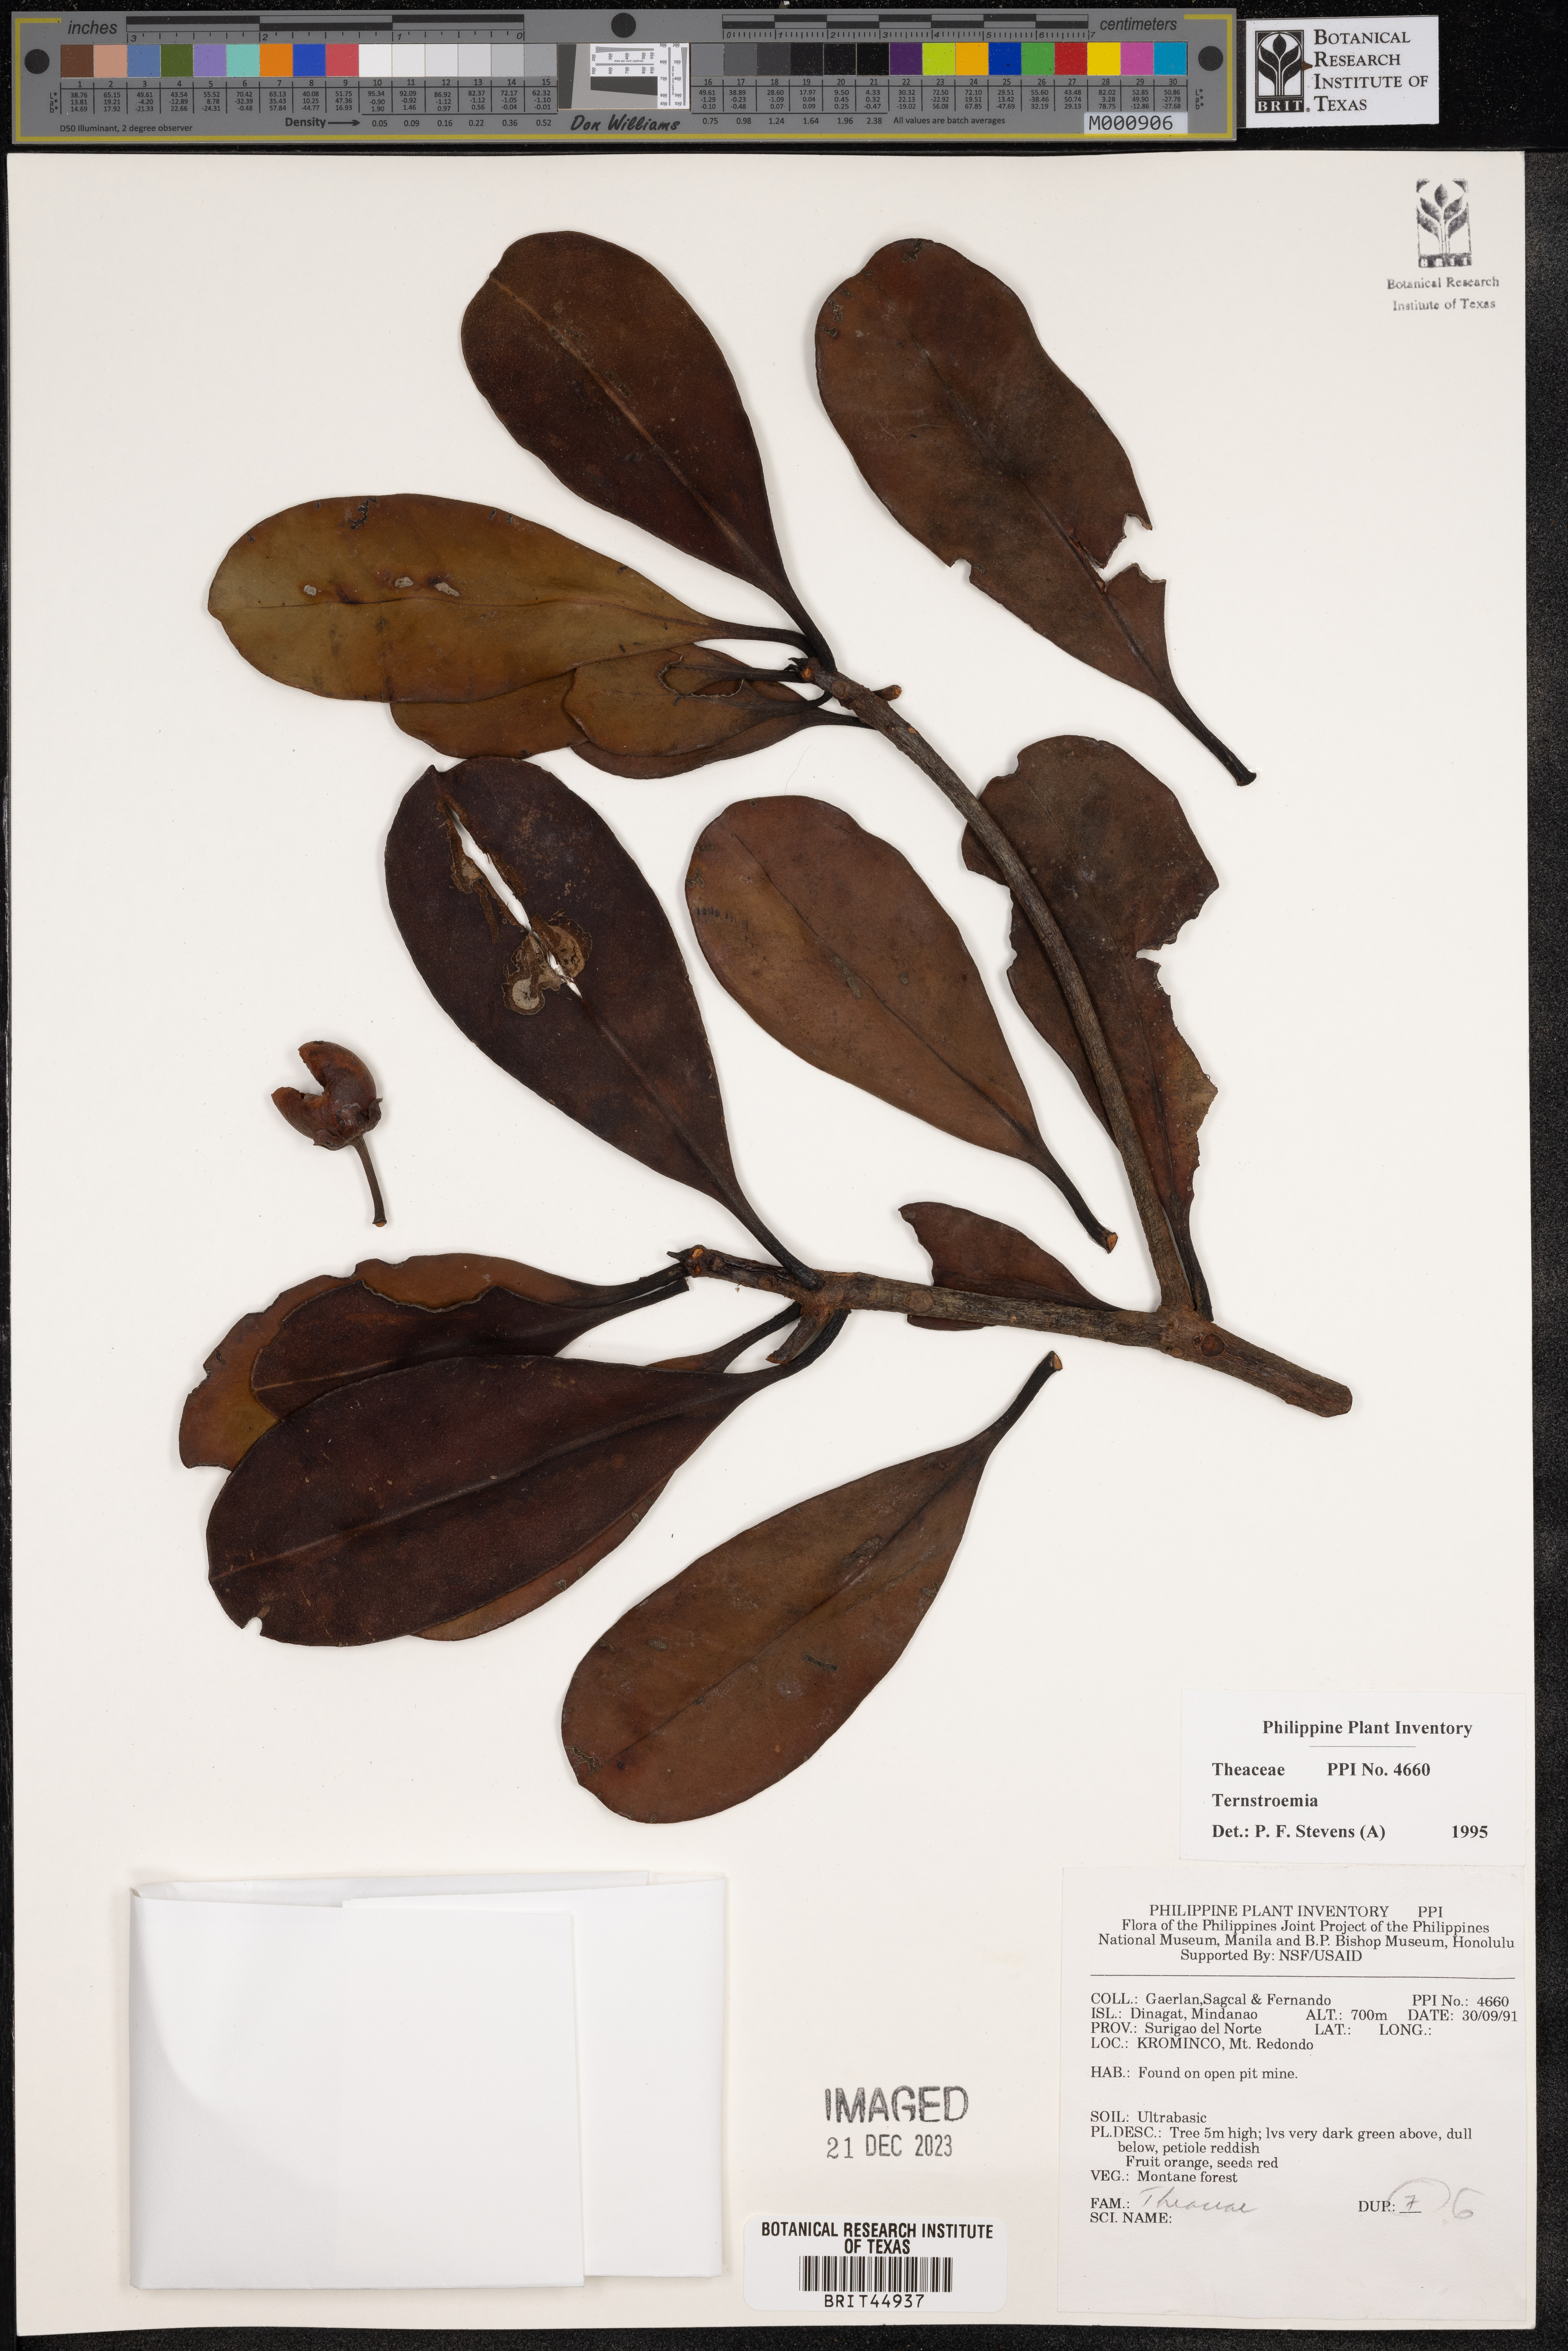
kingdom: Plantae
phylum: Tracheophyta
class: Magnoliopsida
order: Ericales
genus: Ternstroemia
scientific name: Ternstroemia
